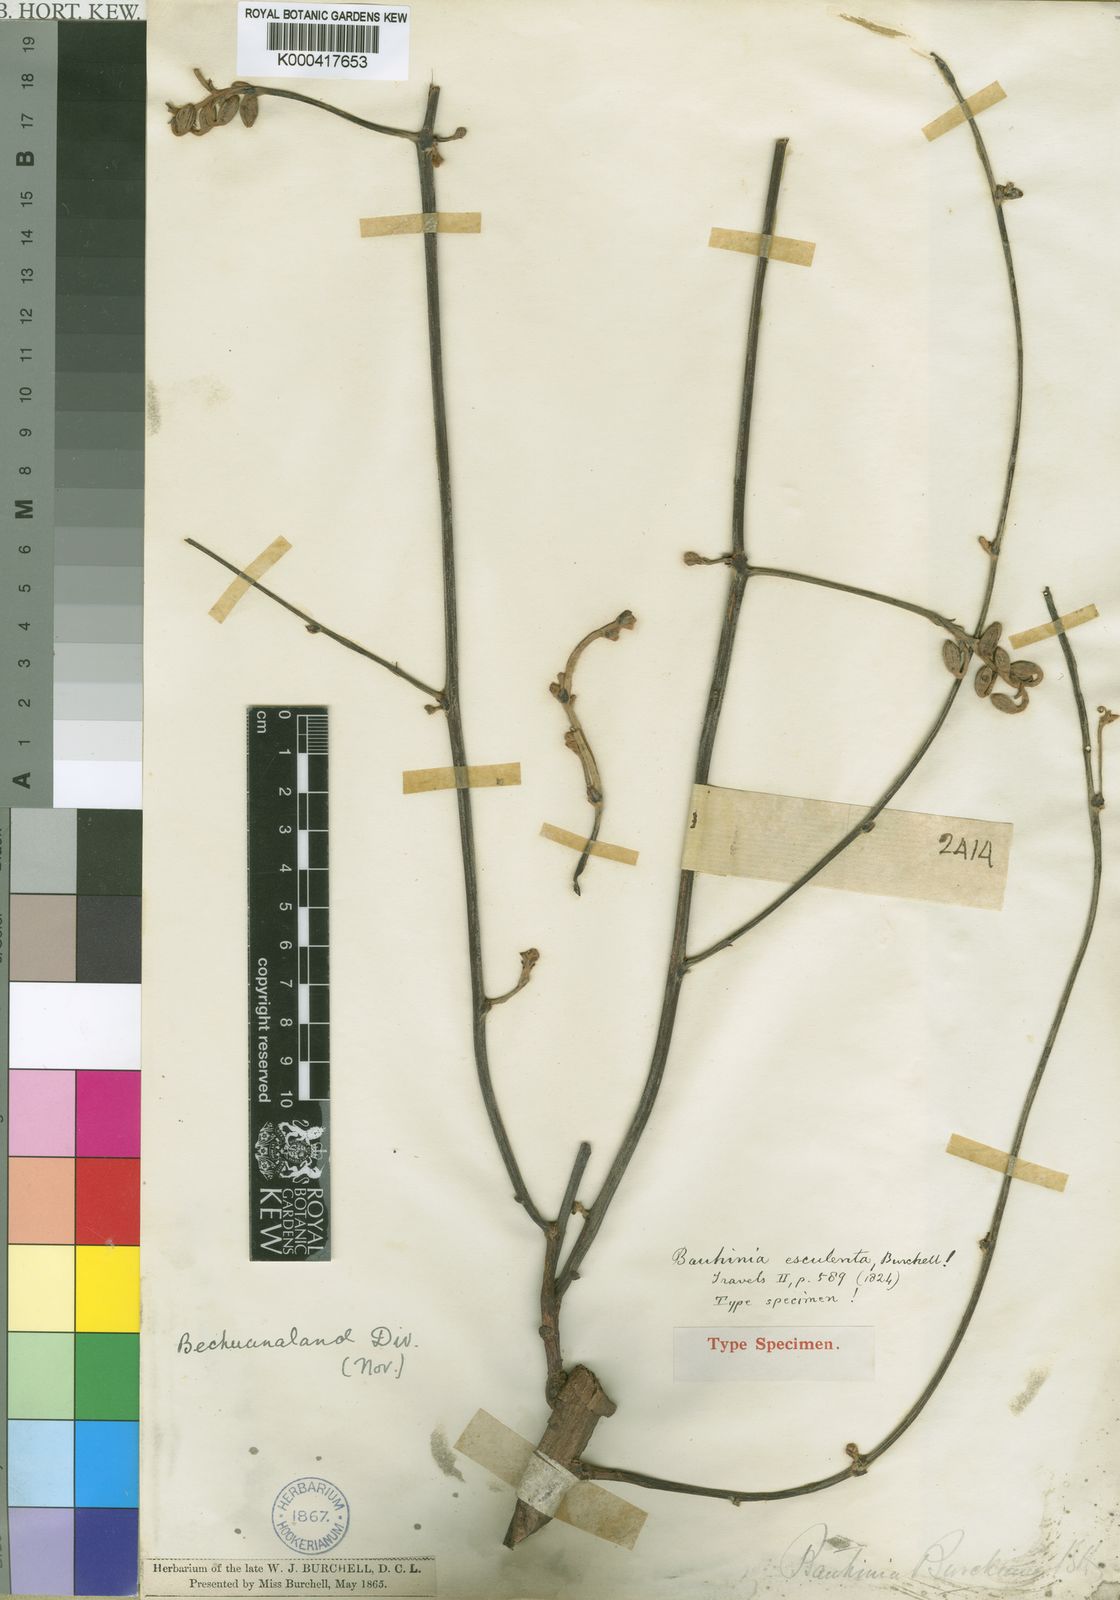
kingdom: Plantae
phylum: Tracheophyta
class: Magnoliopsida
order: Fabales
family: Fabaceae
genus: Tylosema
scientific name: Tylosema
